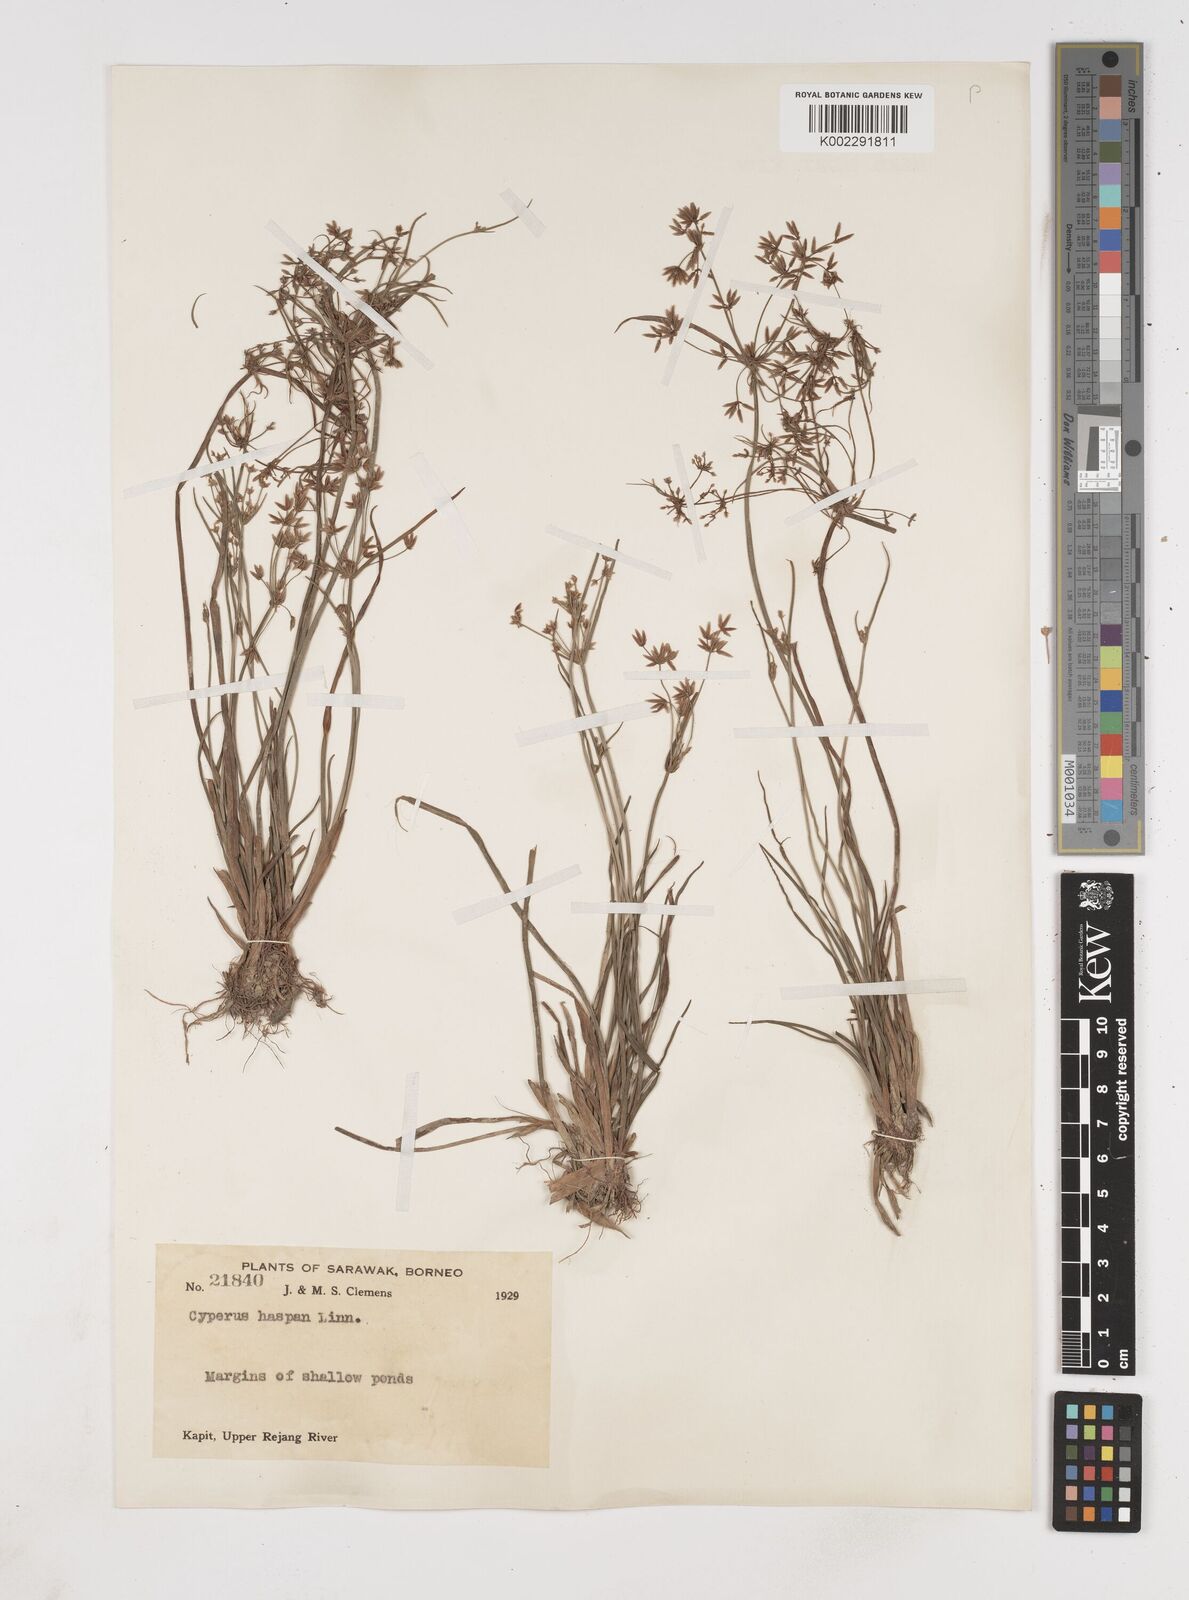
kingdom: Plantae
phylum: Tracheophyta
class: Liliopsida
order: Poales
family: Cyperaceae
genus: Cyperus
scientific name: Cyperus haspan
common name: Haspan flatsedge
